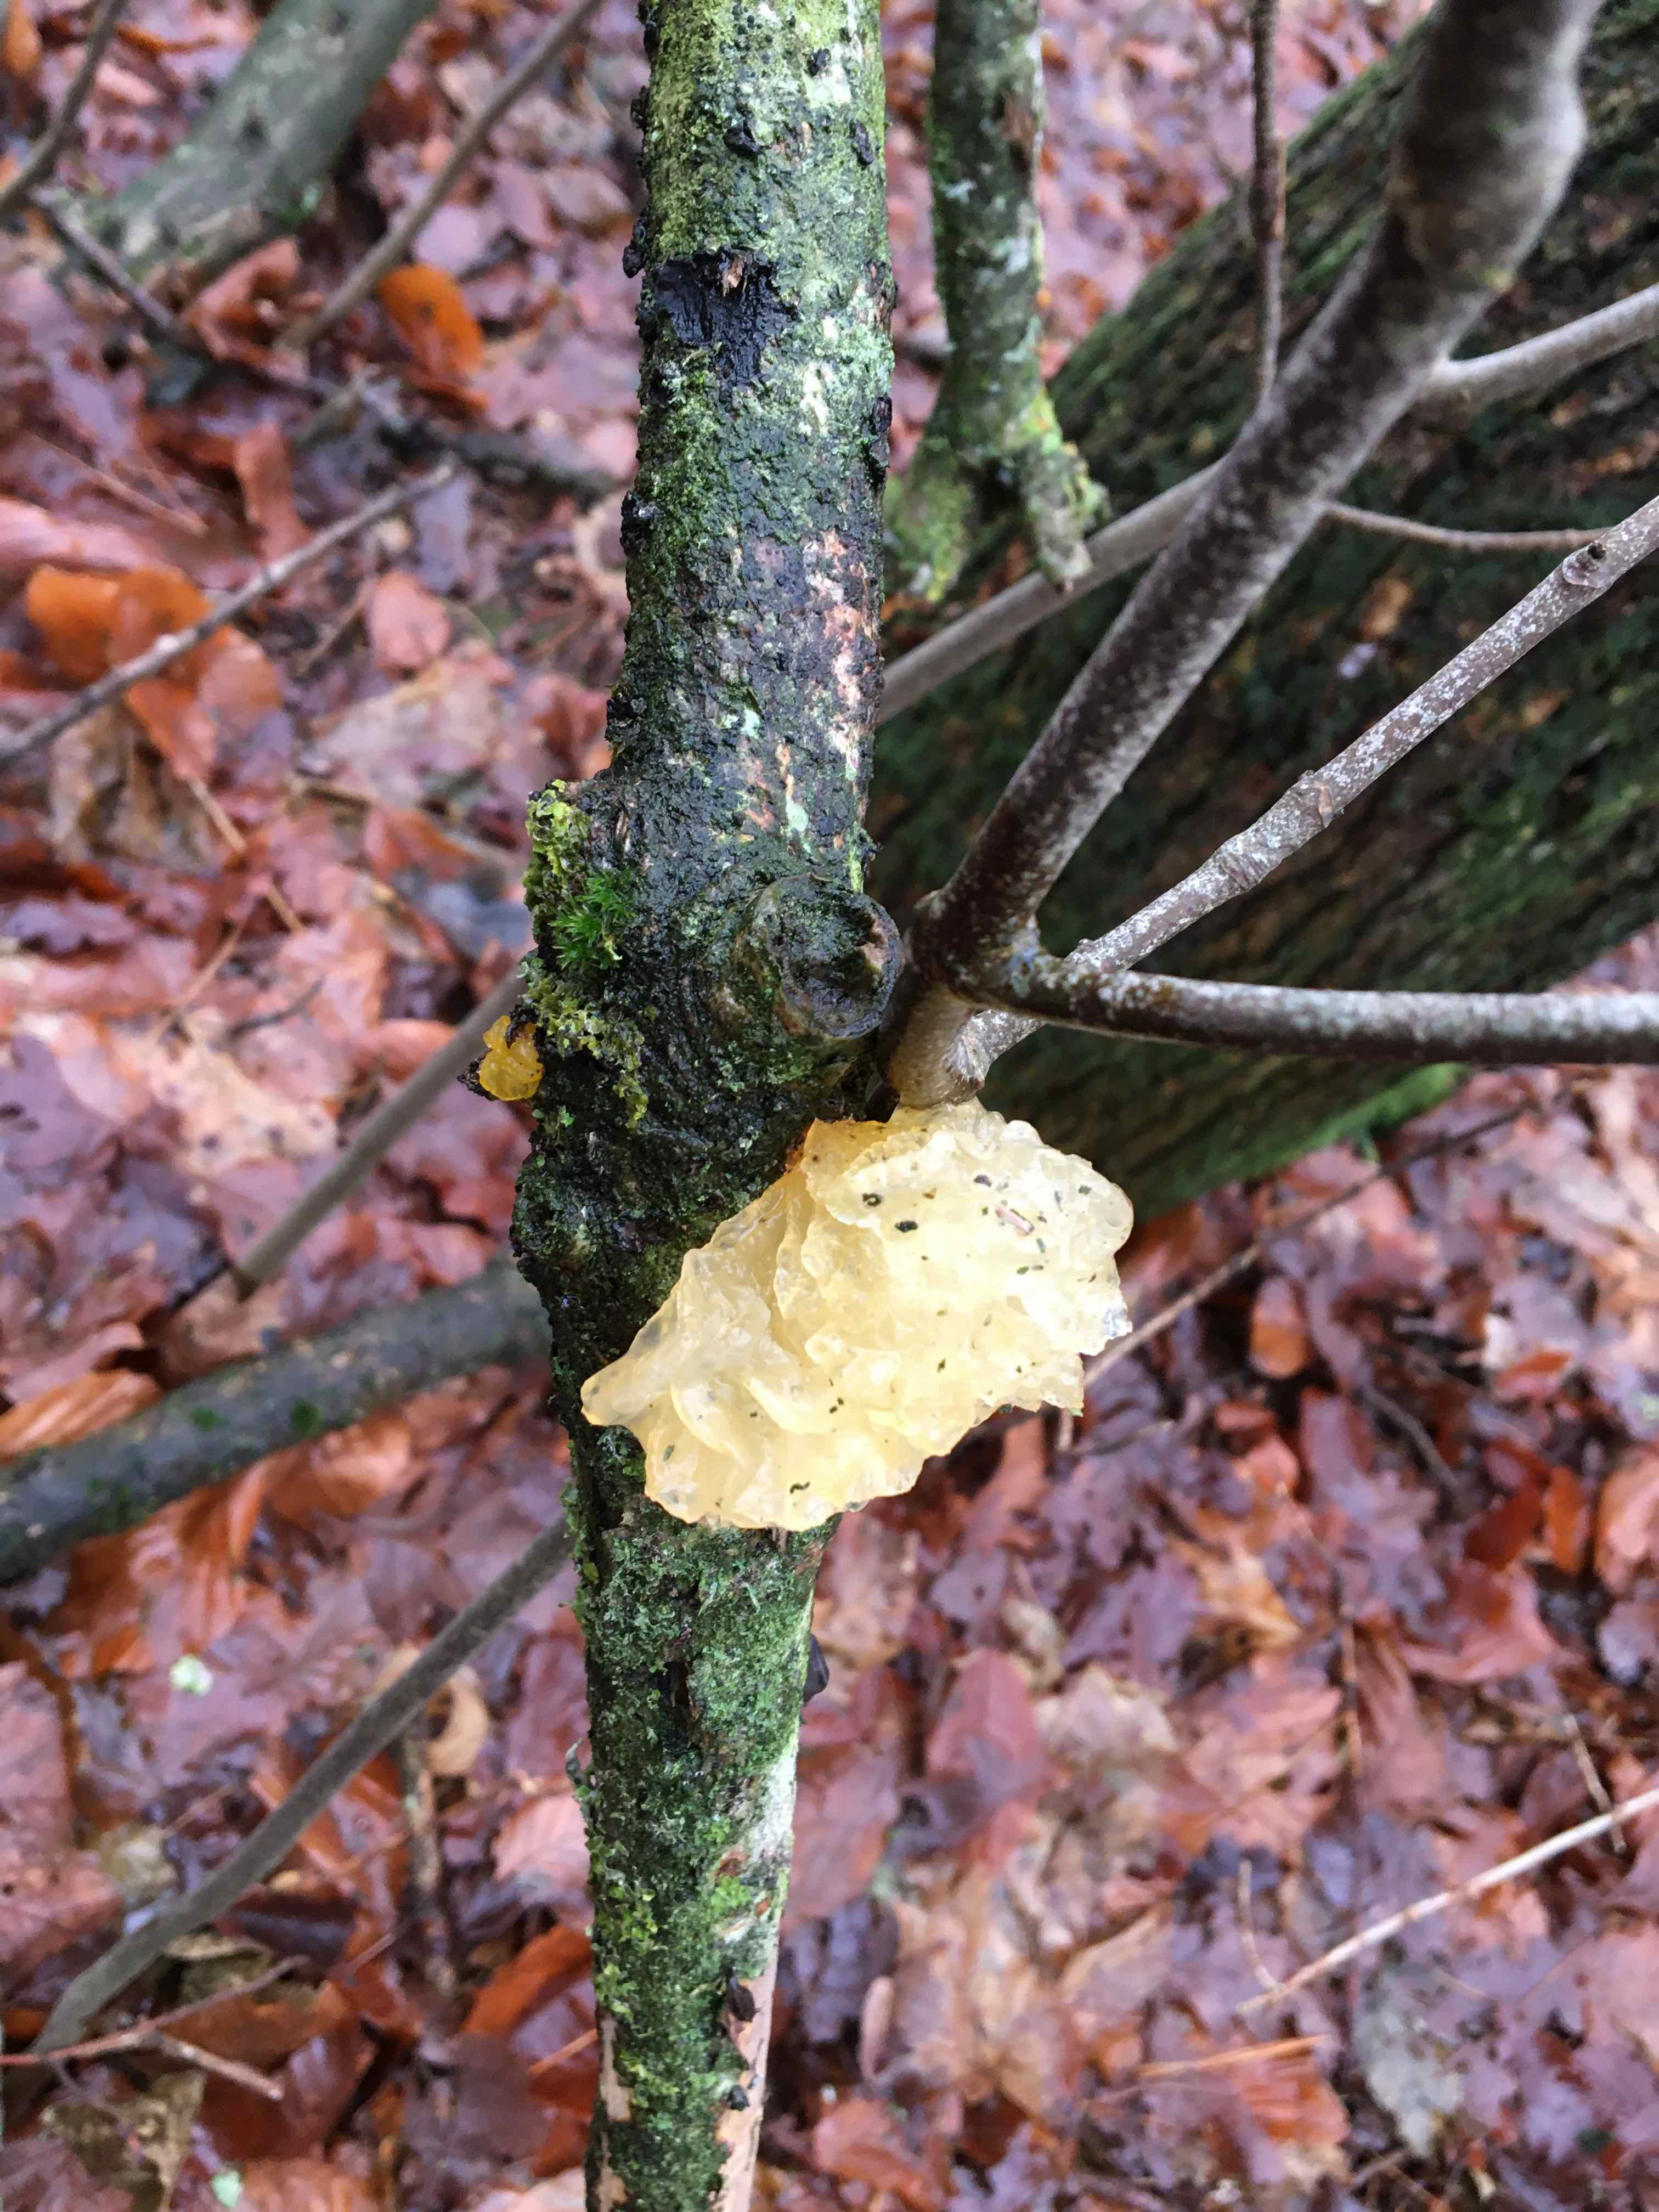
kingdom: Fungi
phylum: Basidiomycota
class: Tremellomycetes
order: Tremellales
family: Tremellaceae
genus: Tremella
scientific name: Tremella mesenterica
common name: gul bævresvamp
